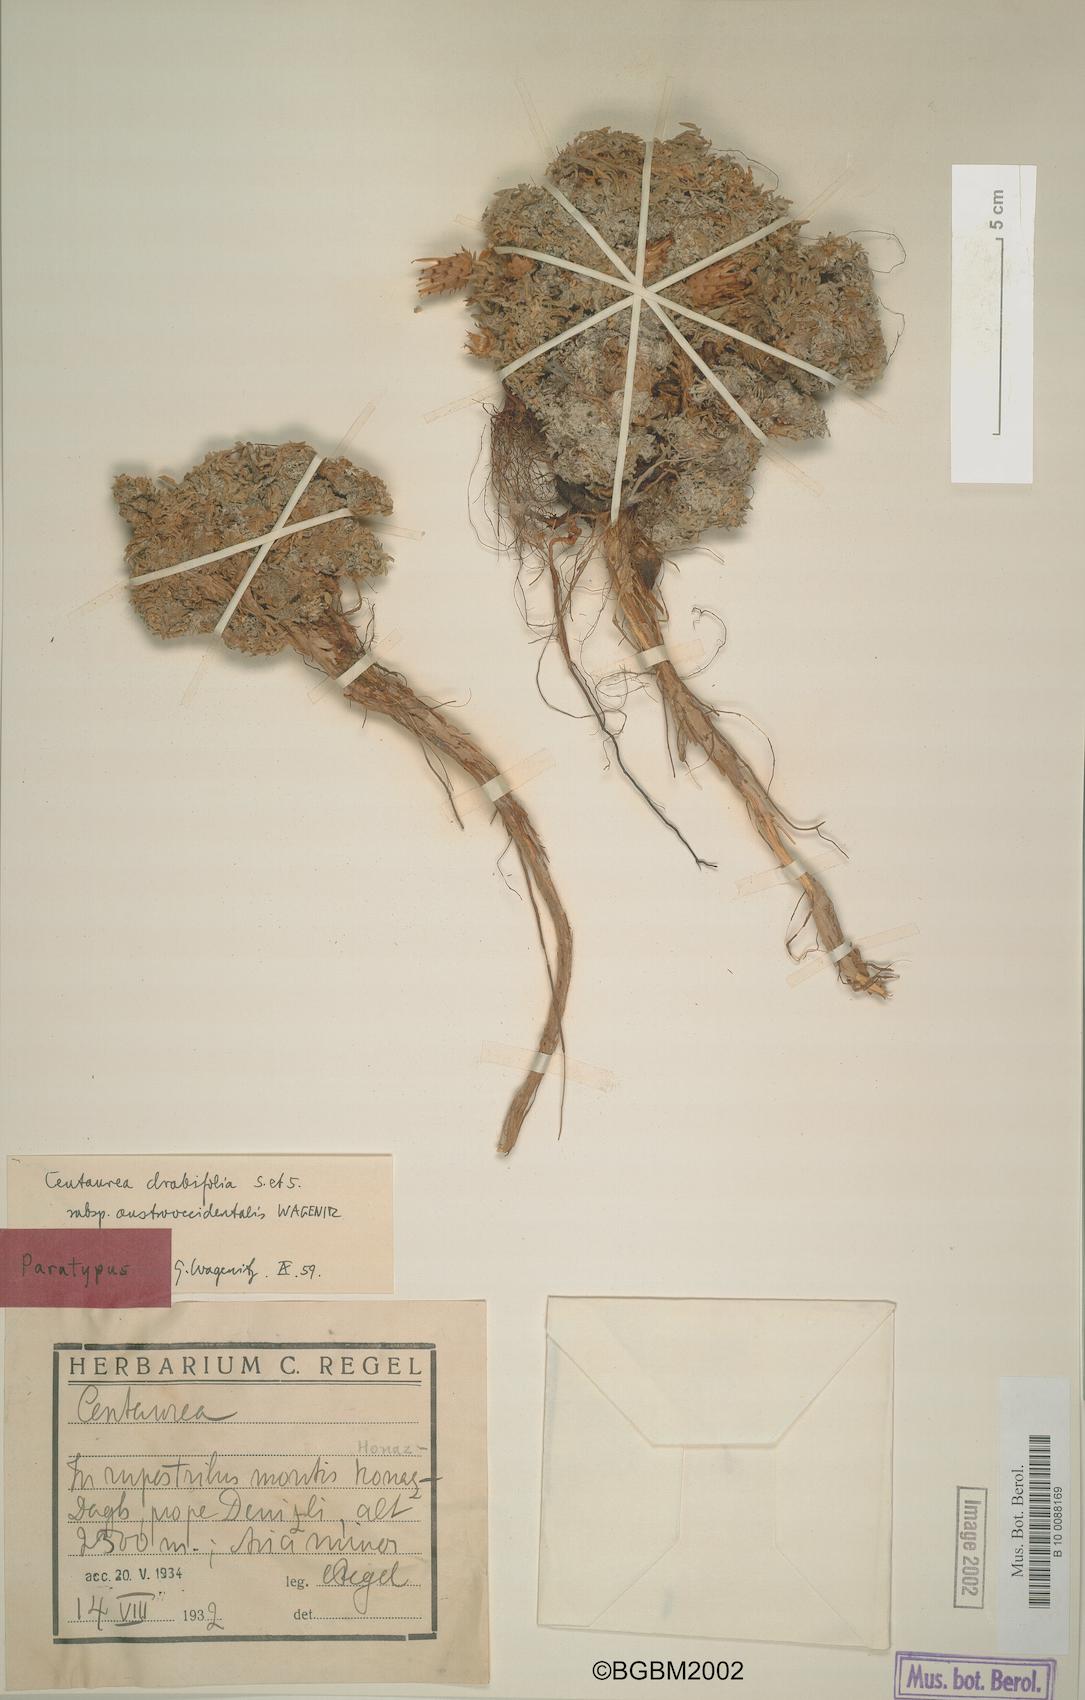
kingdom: Plantae
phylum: Tracheophyta
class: Magnoliopsida
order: Asterales
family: Asteraceae
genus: Centaurea
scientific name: Centaurea drabifolia
